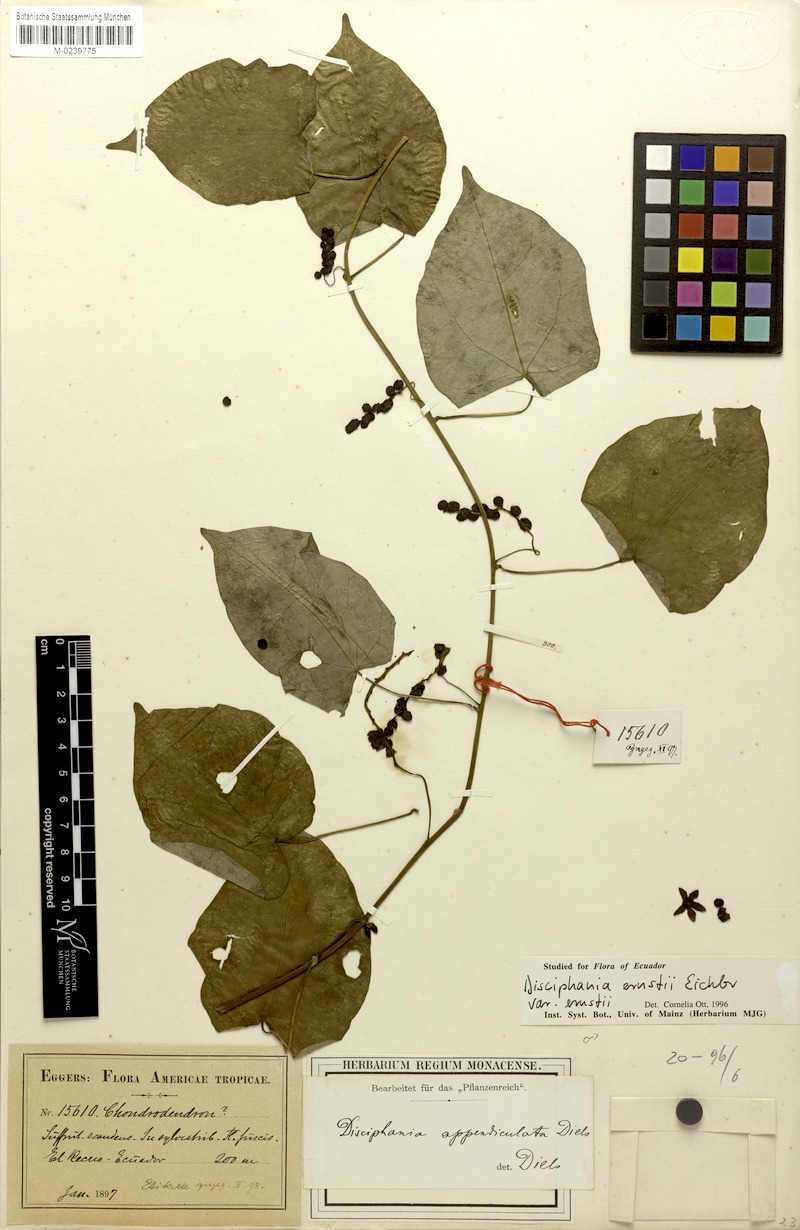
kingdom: Plantae
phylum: Tracheophyta
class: Magnoliopsida
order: Ranunculales
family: Menispermaceae
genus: Disciphania
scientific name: Disciphania ernstii
